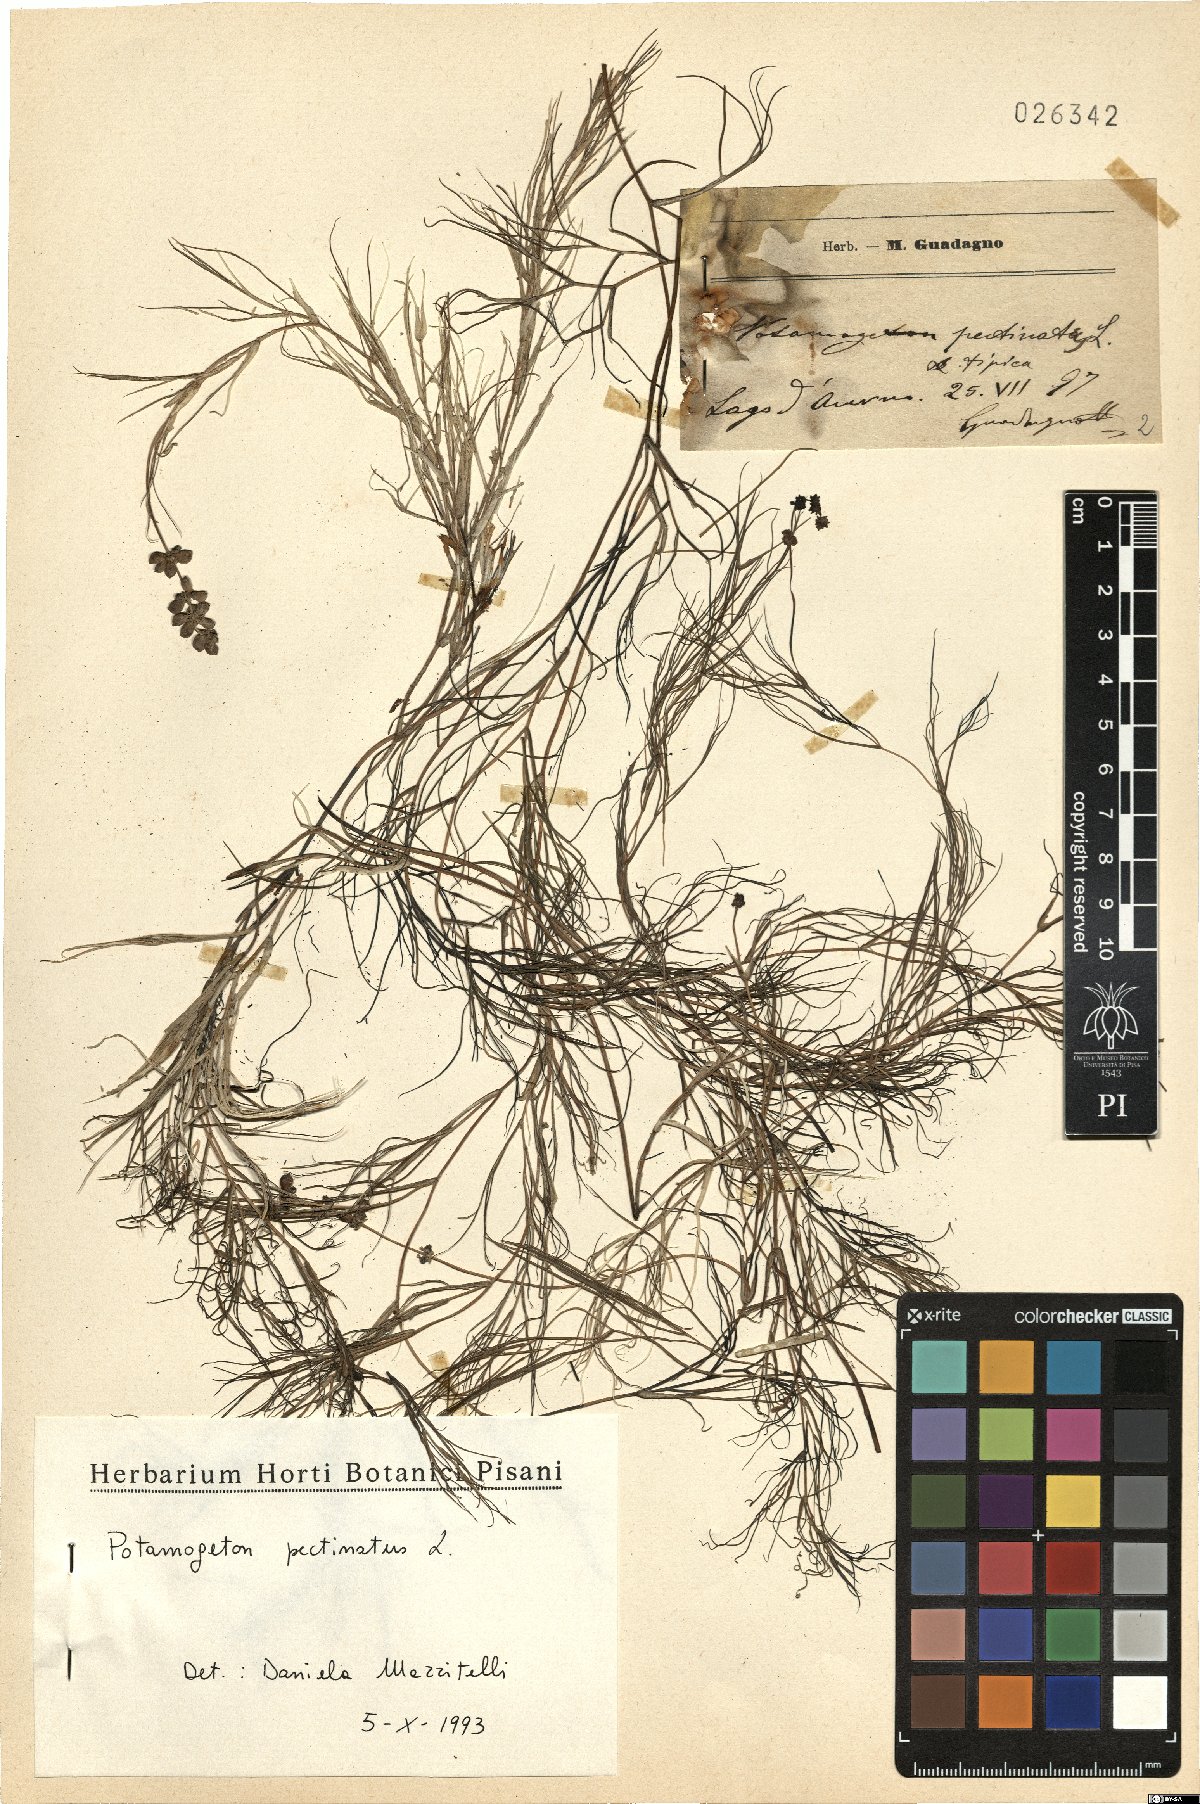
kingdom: Plantae
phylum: Tracheophyta
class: Liliopsida
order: Alismatales
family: Potamogetonaceae
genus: Stuckenia
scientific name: Stuckenia pectinata
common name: Sago pondweed
